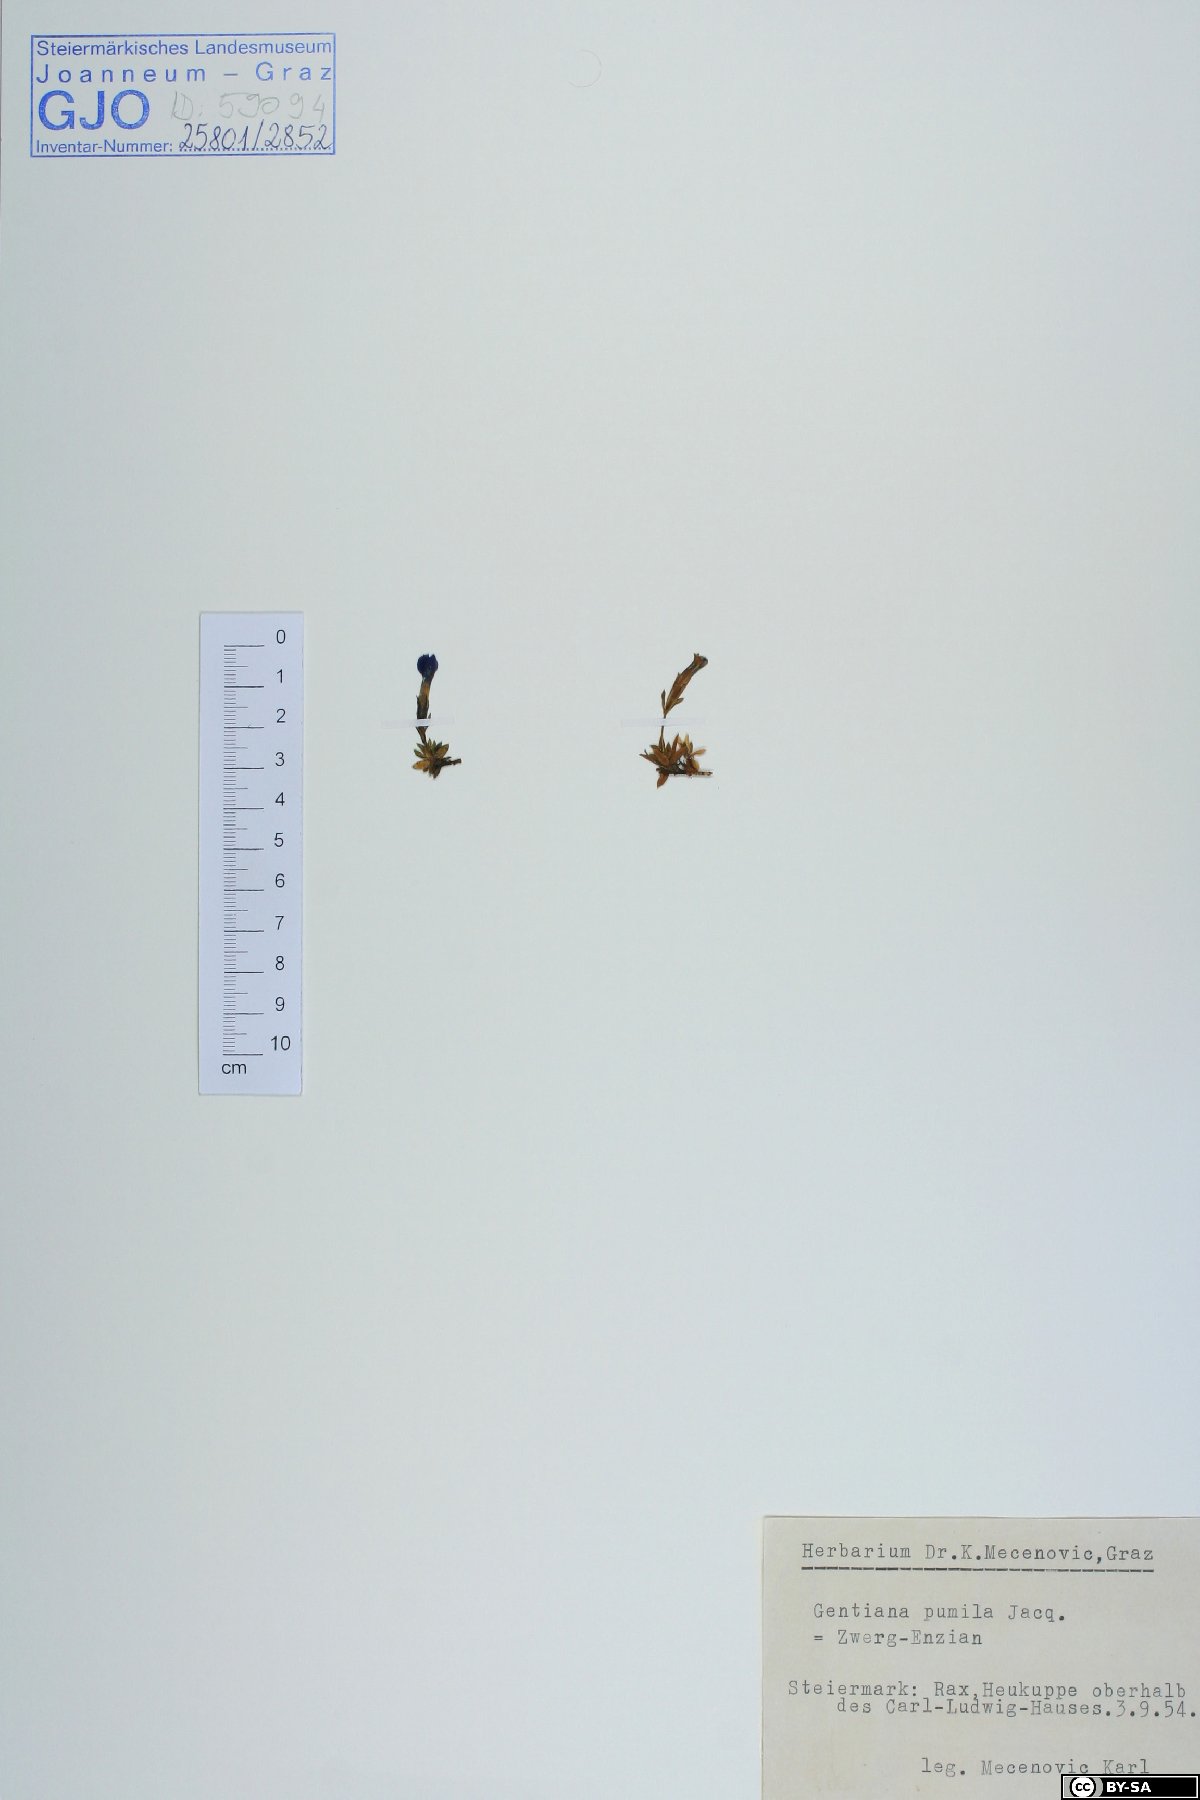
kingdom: Plantae
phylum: Tracheophyta
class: Magnoliopsida
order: Gentianales
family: Gentianaceae
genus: Gentiana
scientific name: Gentiana pumila
